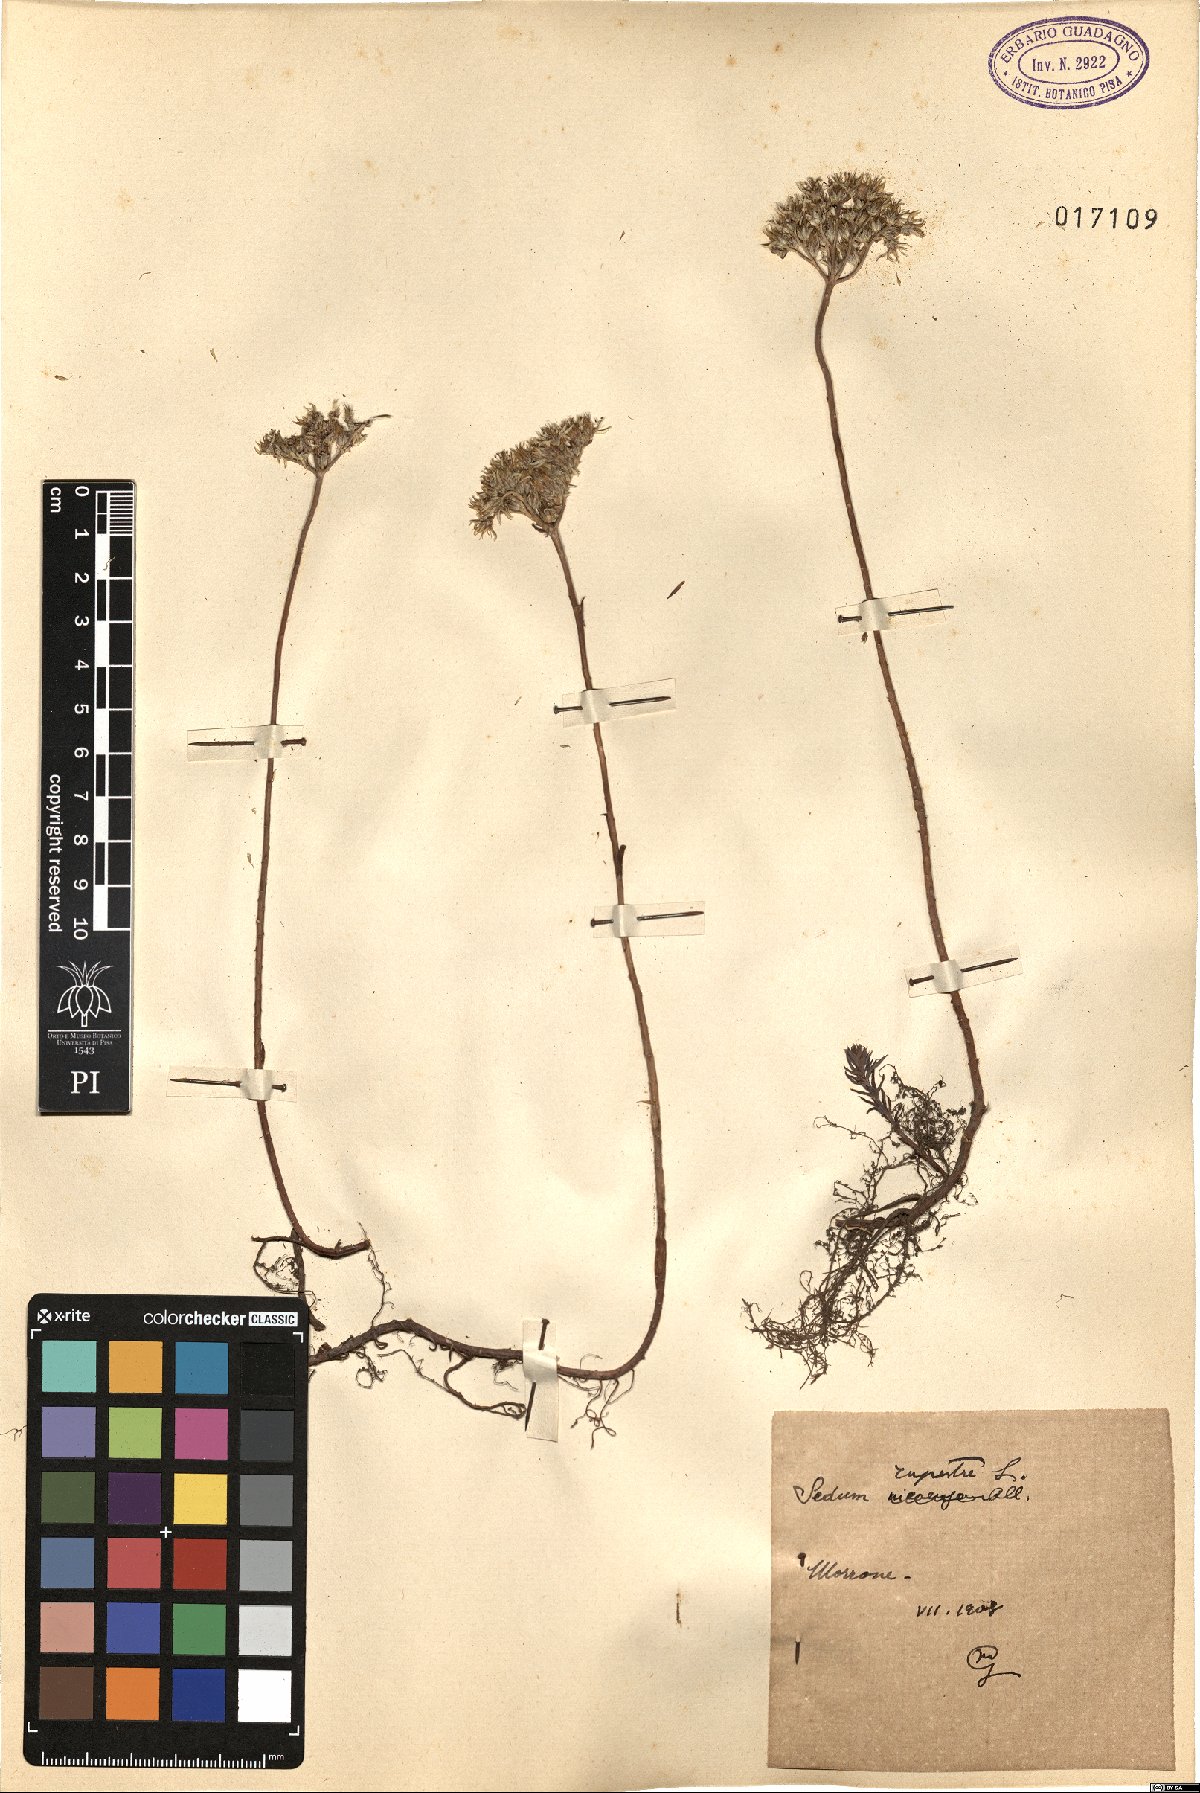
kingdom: Plantae
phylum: Tracheophyta
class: Magnoliopsida
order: Saxifragales
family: Crassulaceae
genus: Petrosedum
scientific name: Petrosedum rupestre
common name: Jenny's stonecrop
